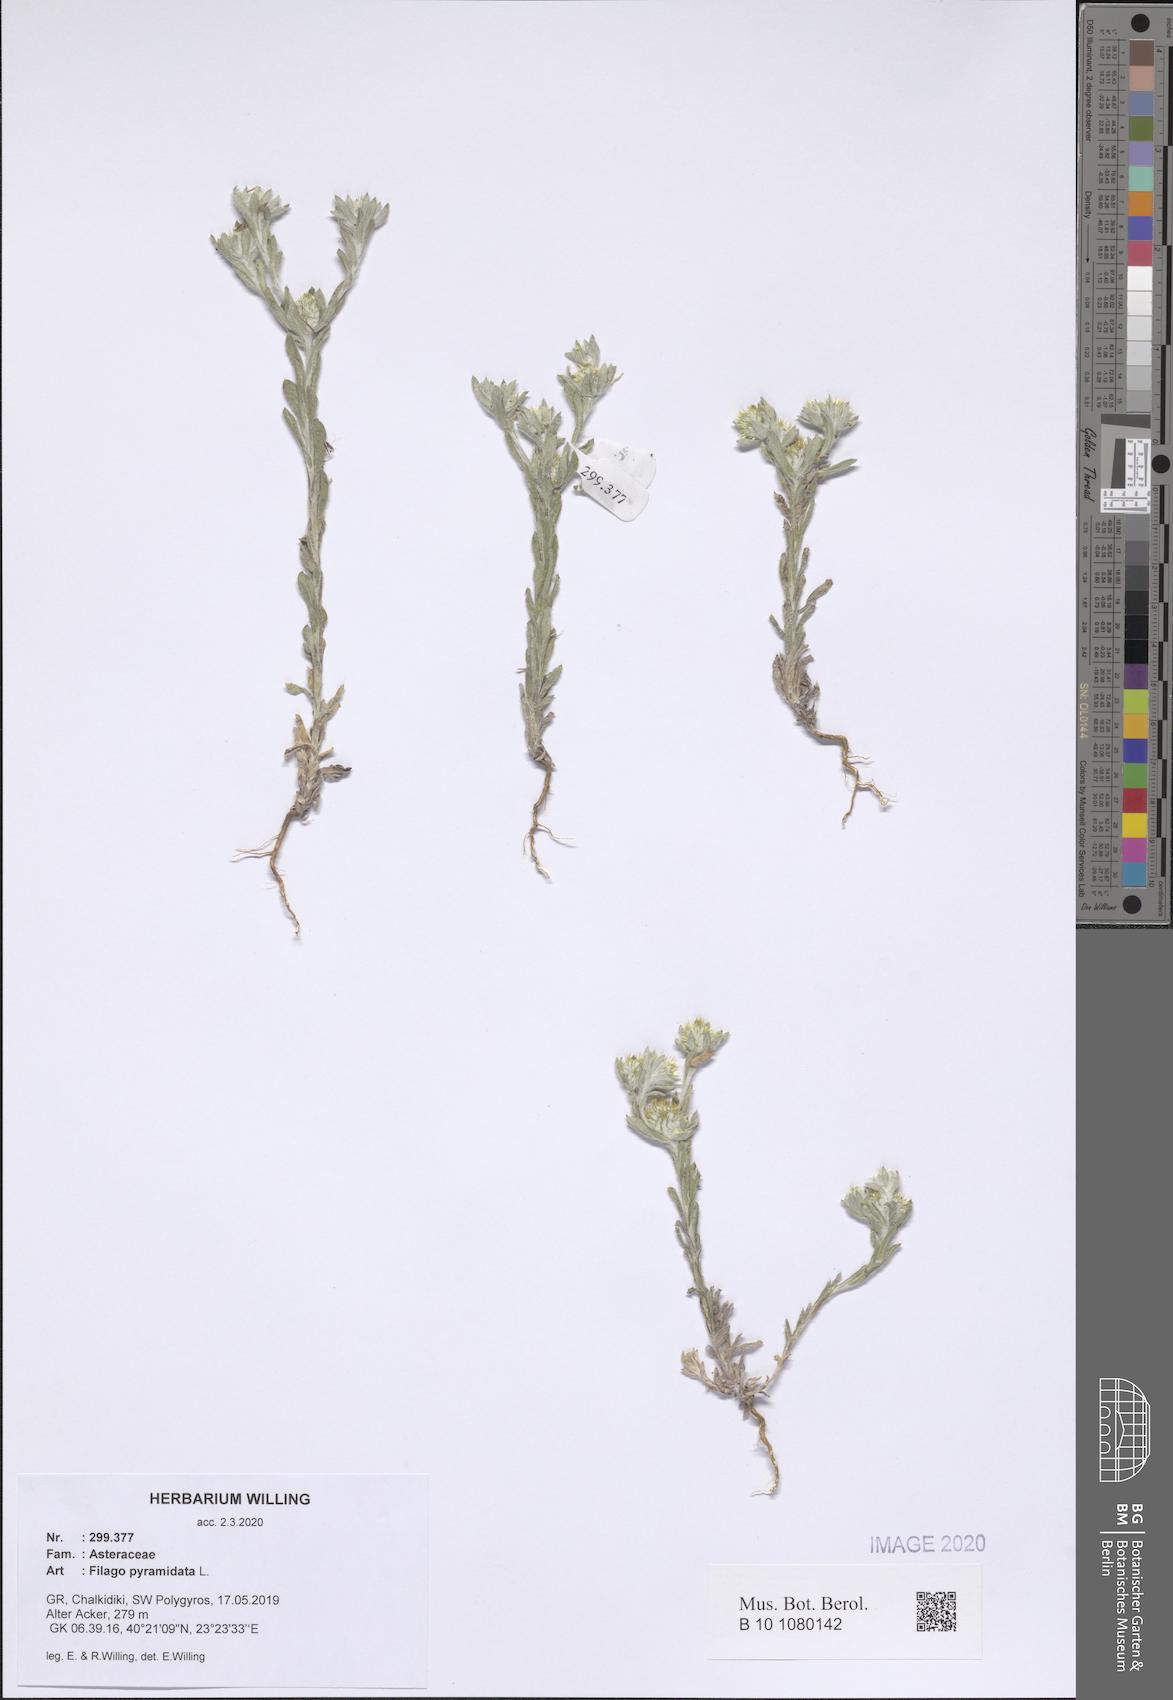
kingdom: Plantae
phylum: Tracheophyta
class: Magnoliopsida
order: Asterales
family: Asteraceae
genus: Filago
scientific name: Filago pyramidata
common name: Broad-leaved cudweed
